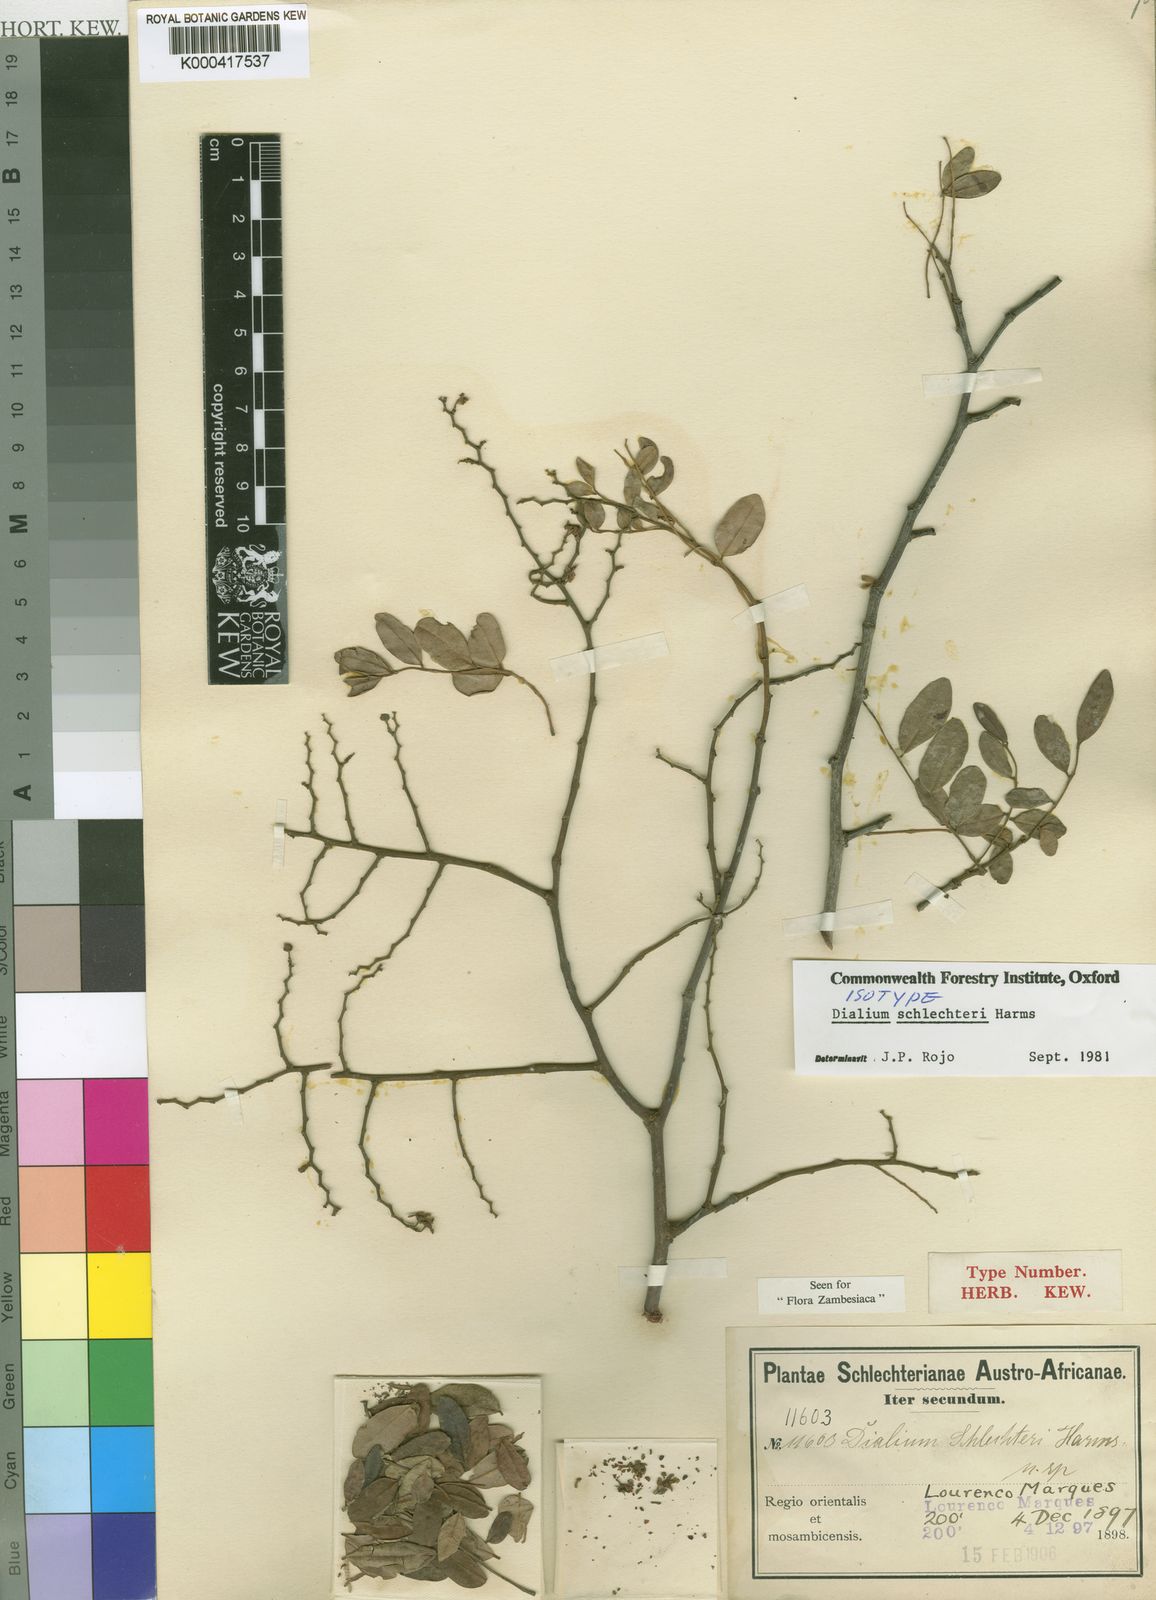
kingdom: Plantae
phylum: Tracheophyta
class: Magnoliopsida
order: Fabales
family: Fabaceae
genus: Dialium
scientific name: Dialium schlechteri
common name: Zulu pod-berry
